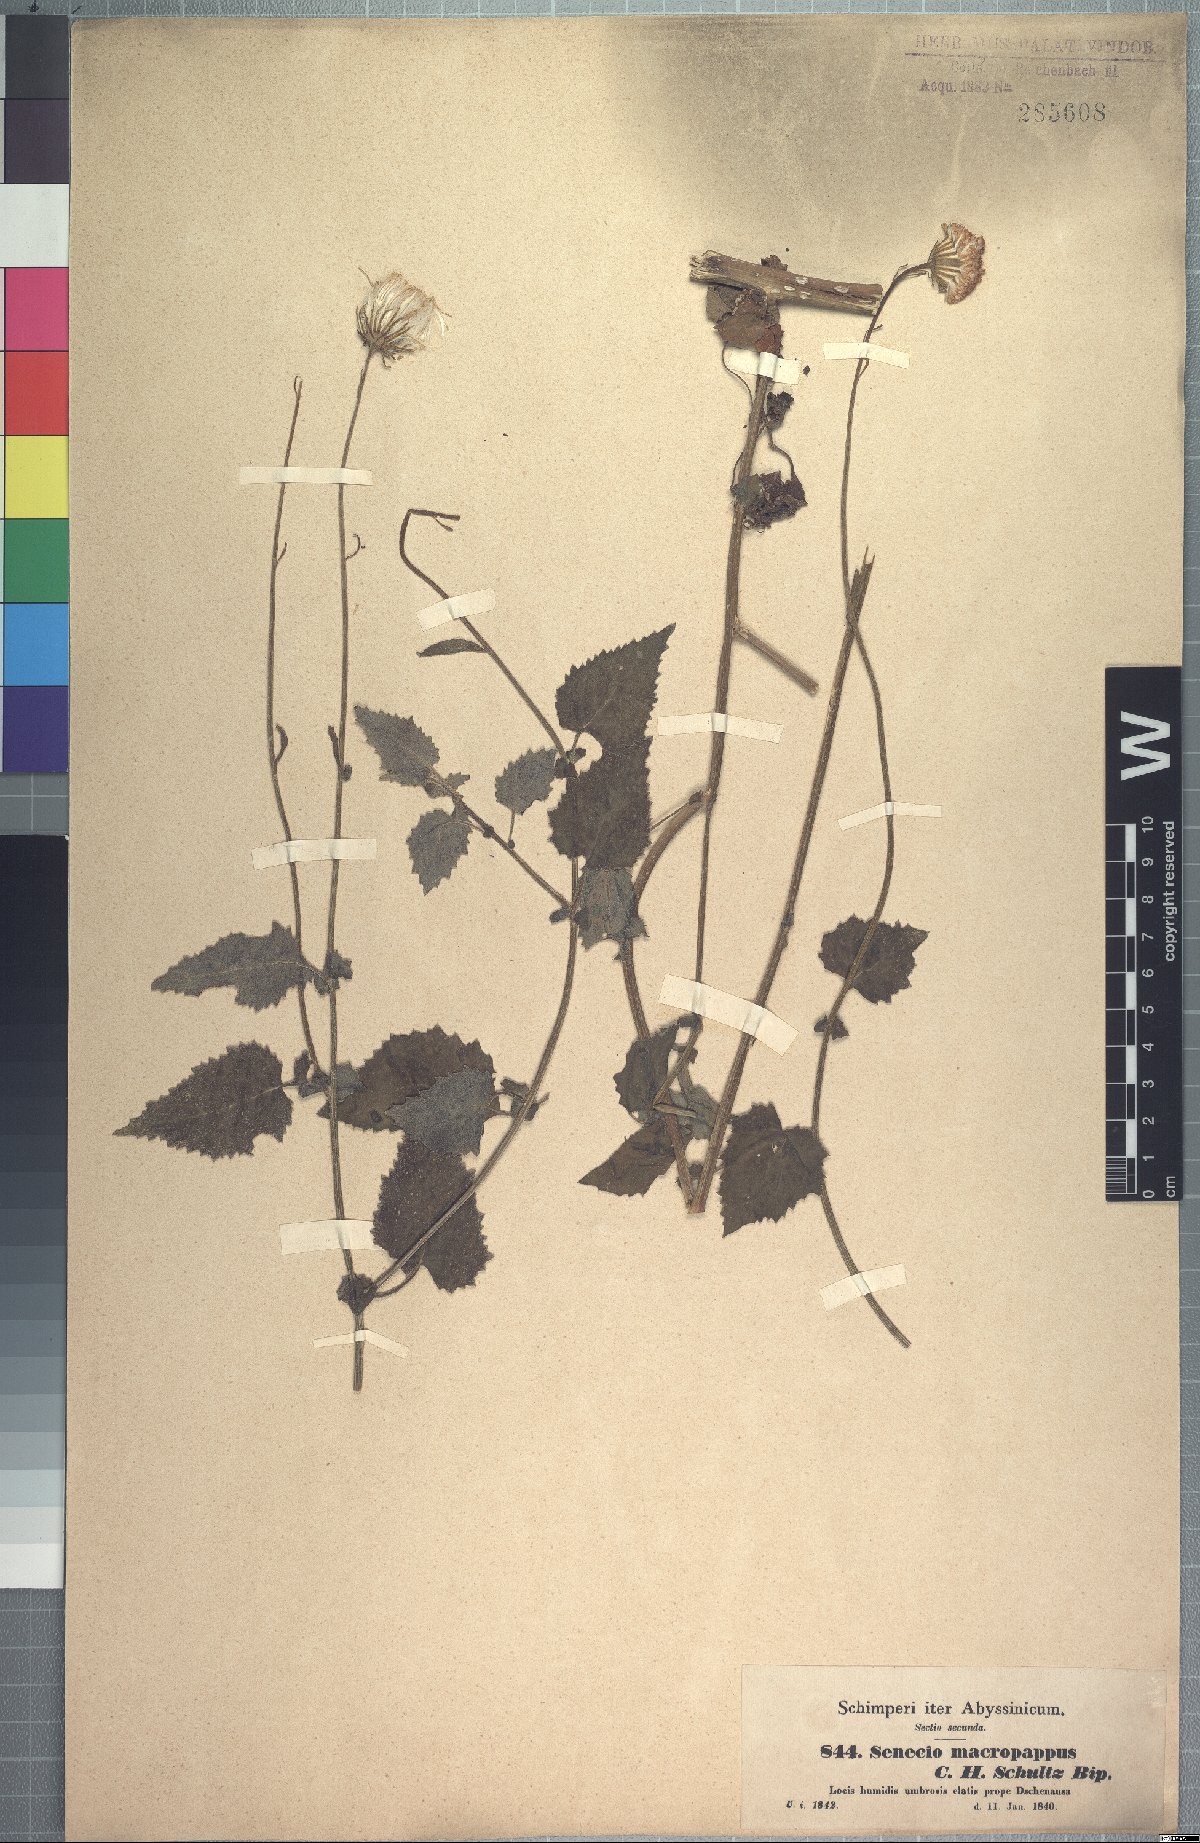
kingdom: Plantae
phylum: Tracheophyta
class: Magnoliopsida
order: Asterales
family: Asteraceae
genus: Crassocephalum
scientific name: Crassocephalum macropappus
